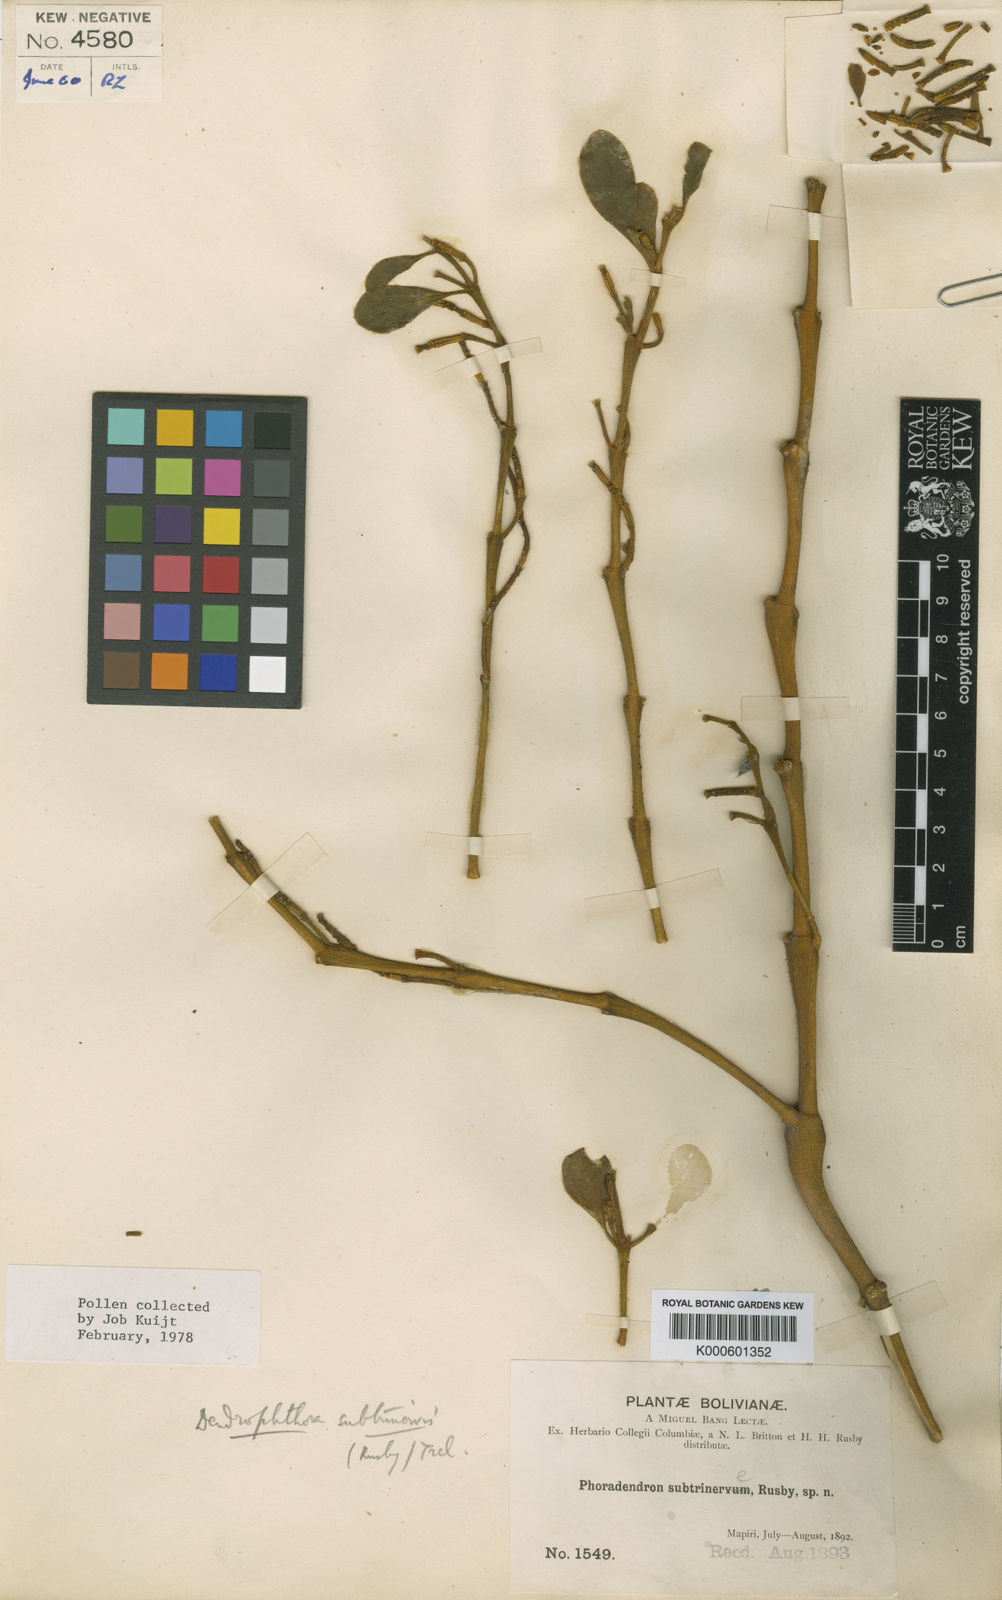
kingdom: Plantae
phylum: Tracheophyta
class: Magnoliopsida
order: Santalales
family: Viscaceae
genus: Dendrophthora
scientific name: Dendrophthora subtrinervis
